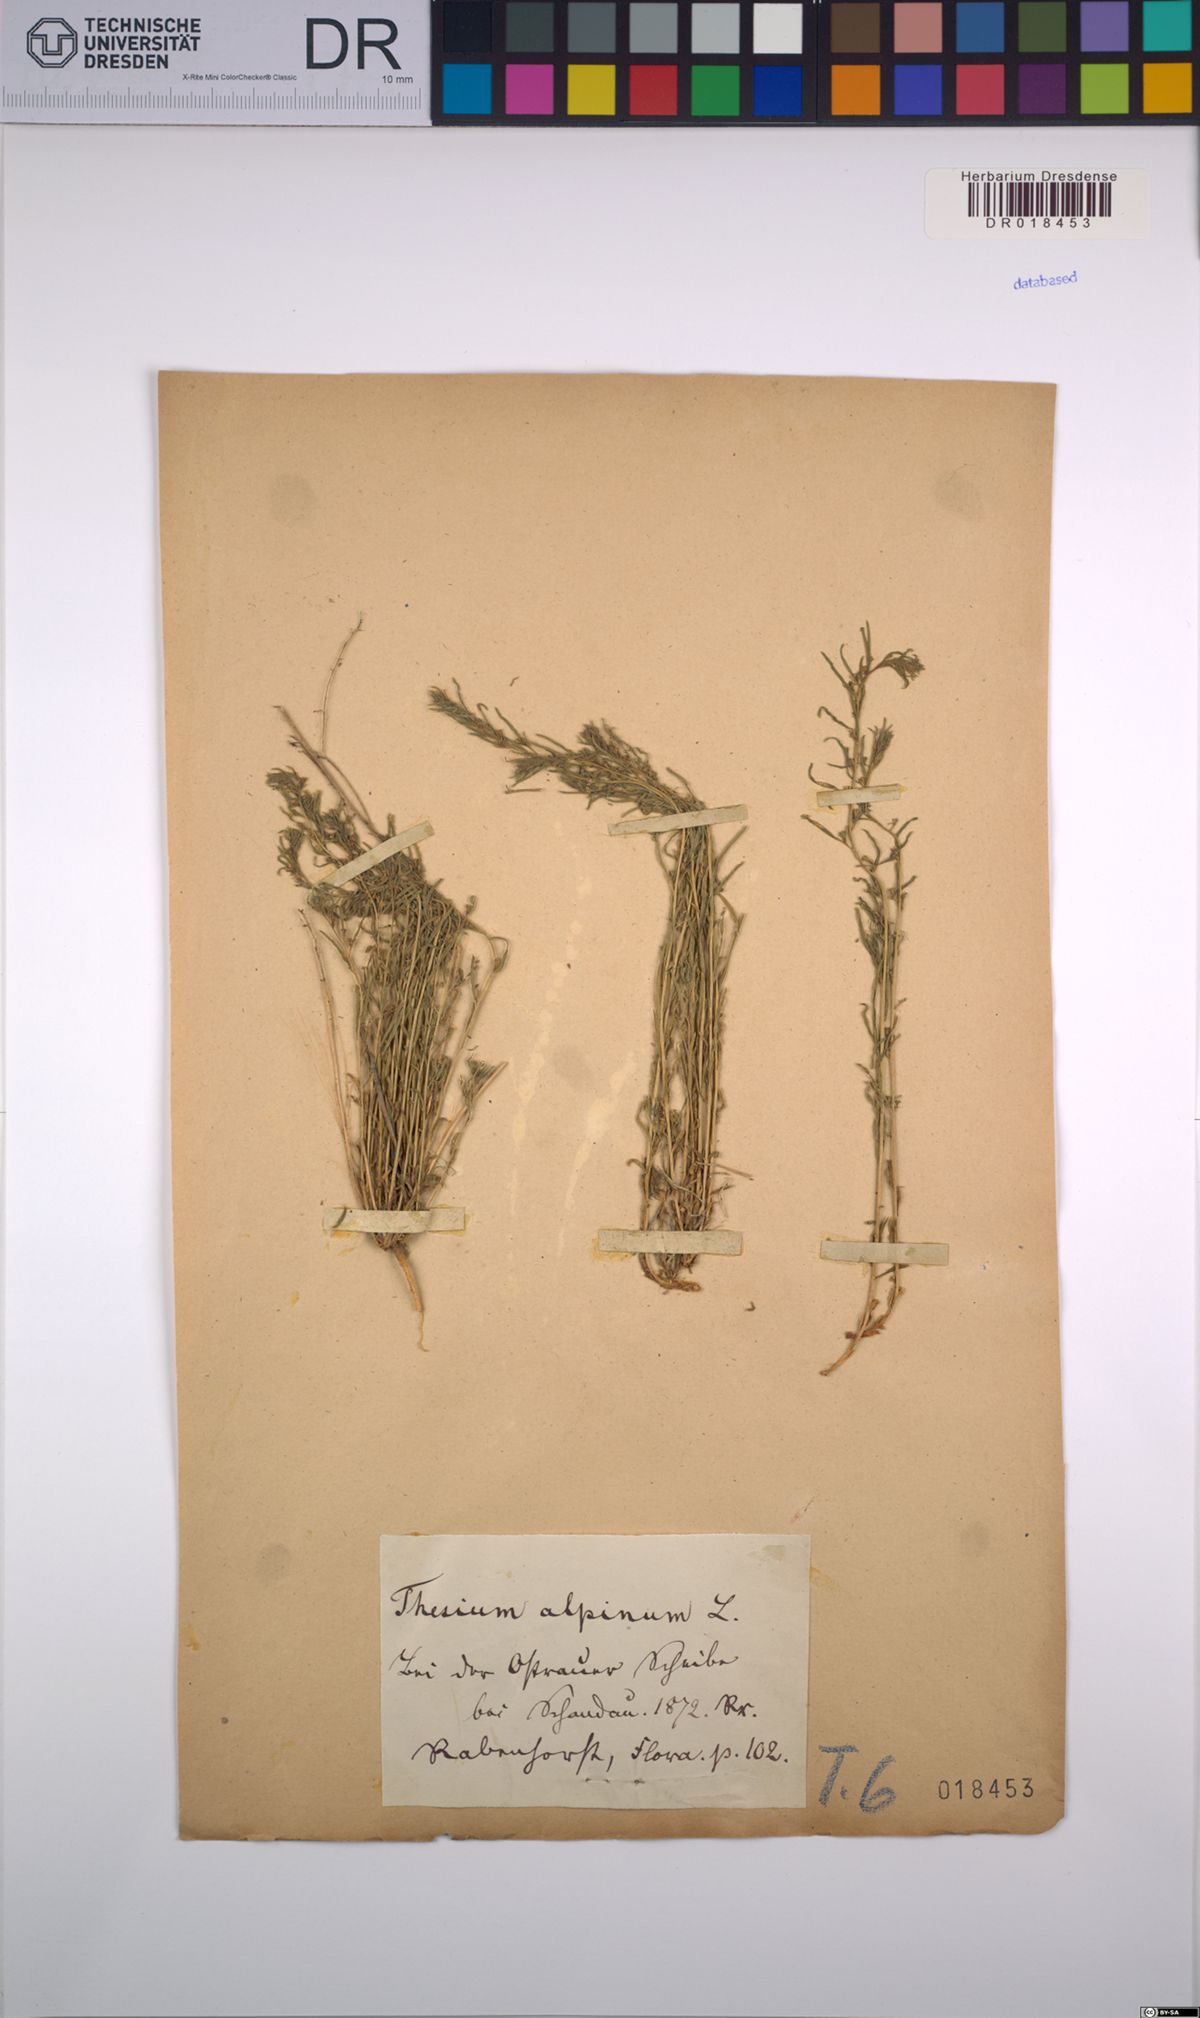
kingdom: Plantae
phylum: Tracheophyta
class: Magnoliopsida
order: Santalales
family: Thesiaceae
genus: Thesium
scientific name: Thesium alpinum
